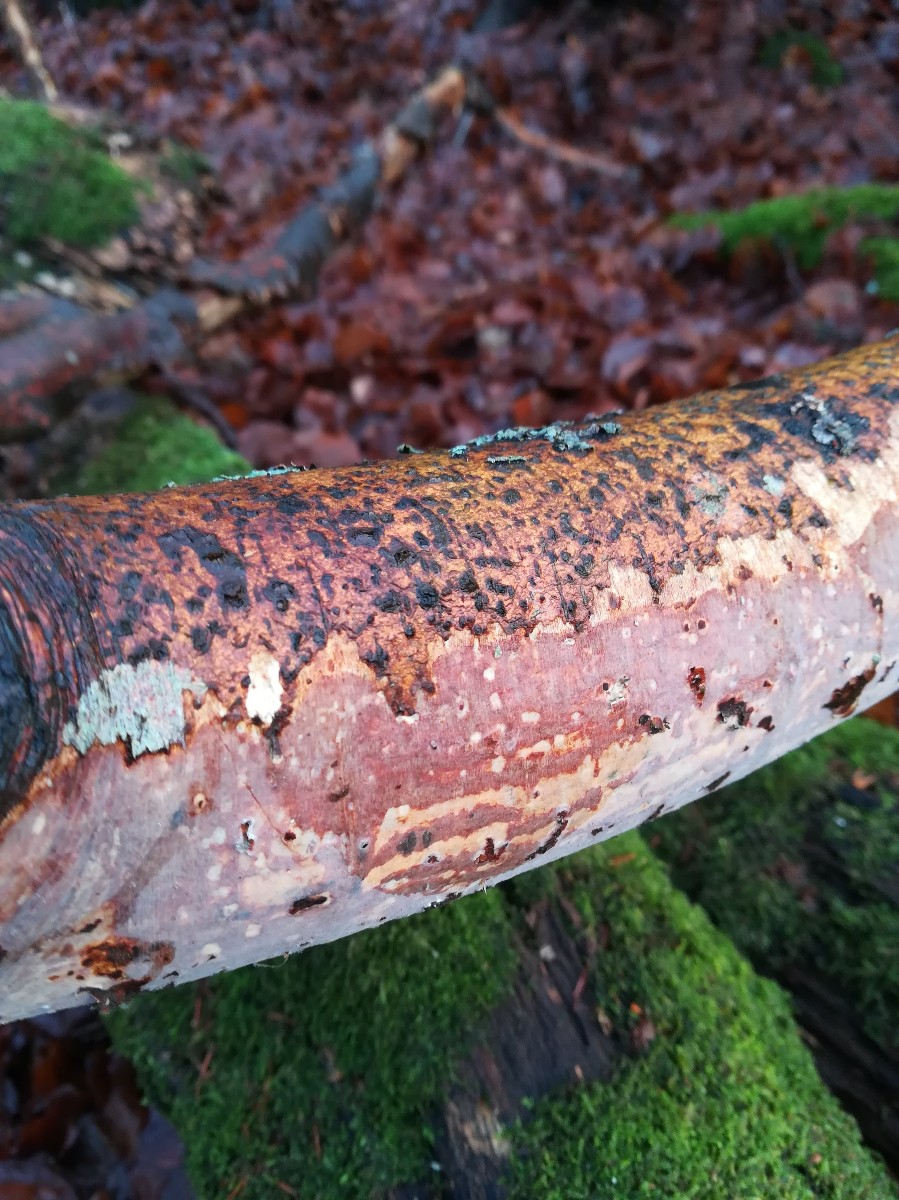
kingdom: Fungi
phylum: Basidiomycota
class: Agaricomycetes
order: Corticiales
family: Vuilleminiaceae
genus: Vuilleminia
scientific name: Vuilleminia comedens
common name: almindelig barksprænger
